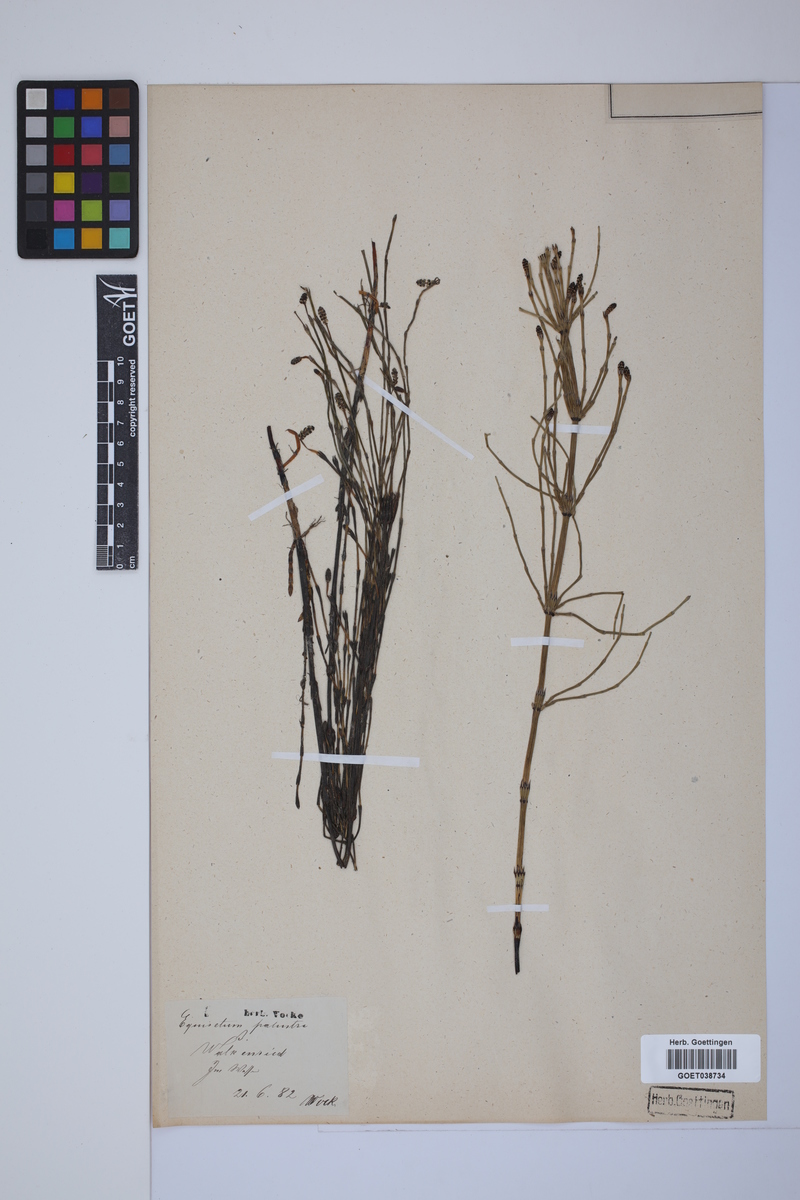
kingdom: Plantae
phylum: Tracheophyta
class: Polypodiopsida
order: Equisetales
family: Equisetaceae
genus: Equisetum
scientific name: Equisetum palustre
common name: Marsh horsetail
